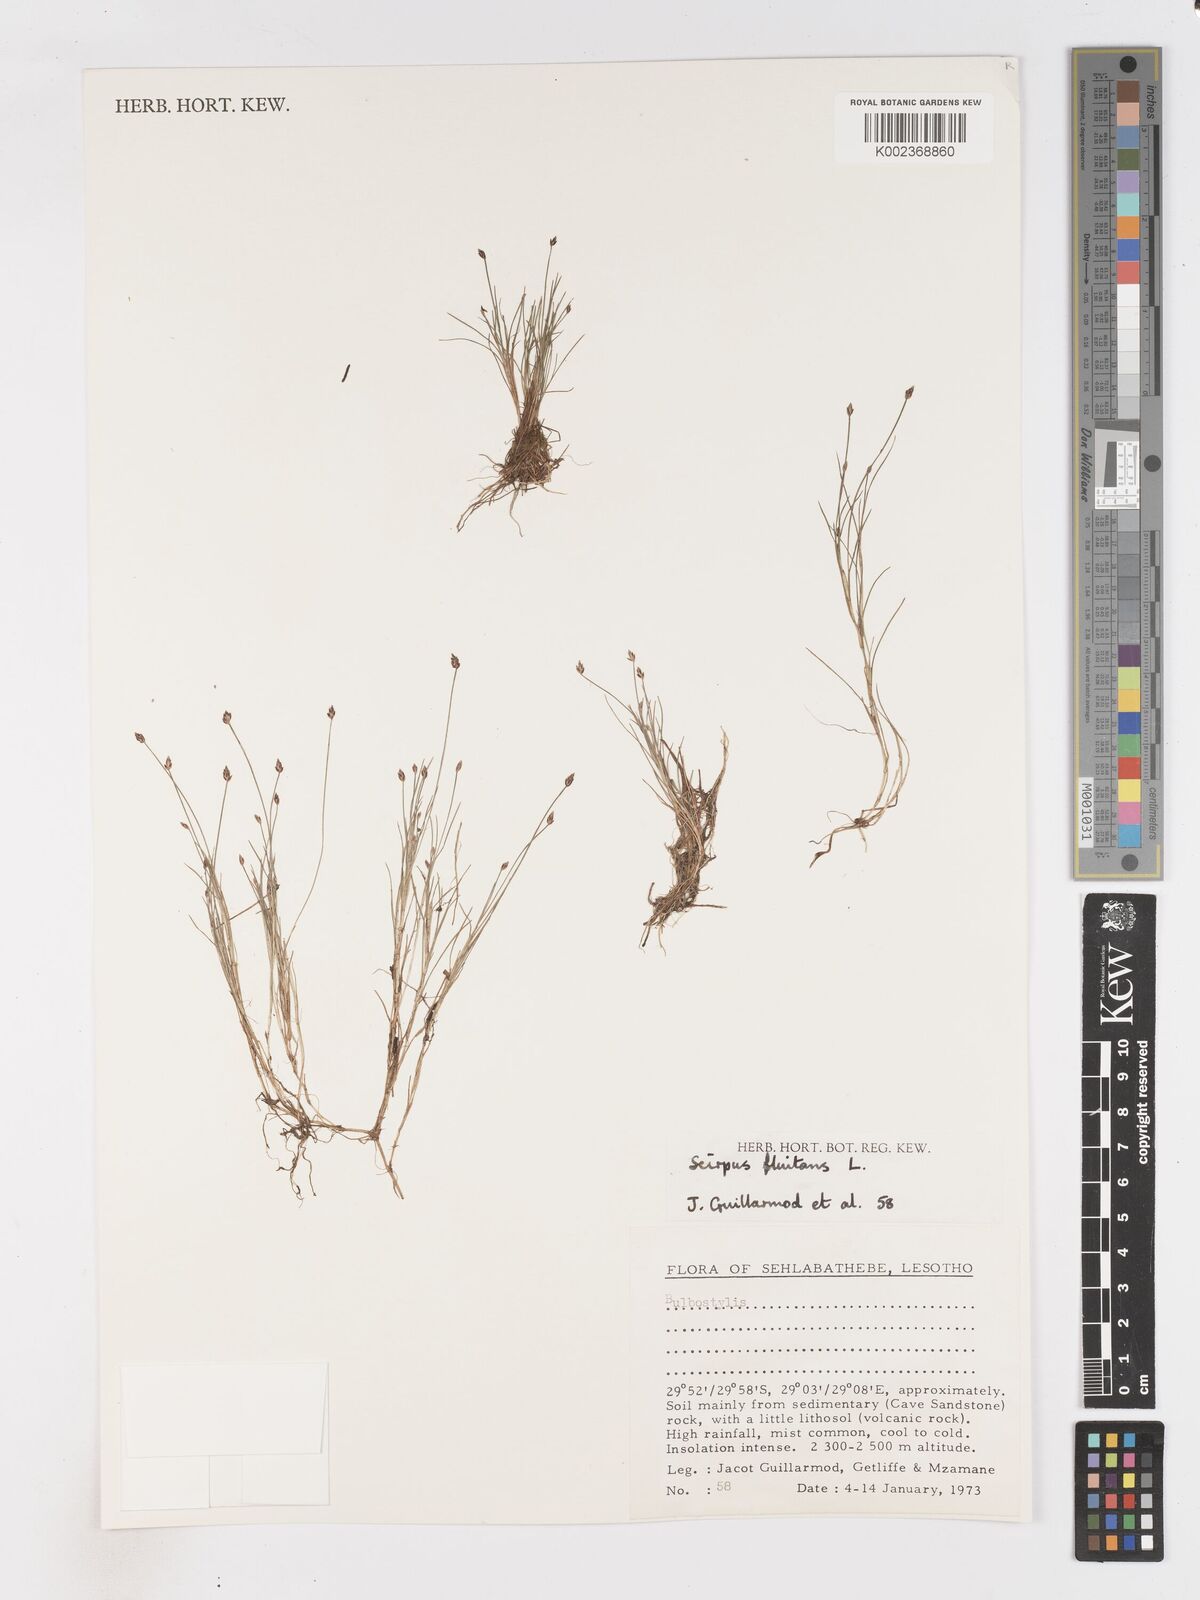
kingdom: Plantae
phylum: Tracheophyta
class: Liliopsida
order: Poales
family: Cyperaceae
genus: Isolepis
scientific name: Isolepis fluitans
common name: Floating club-rush
